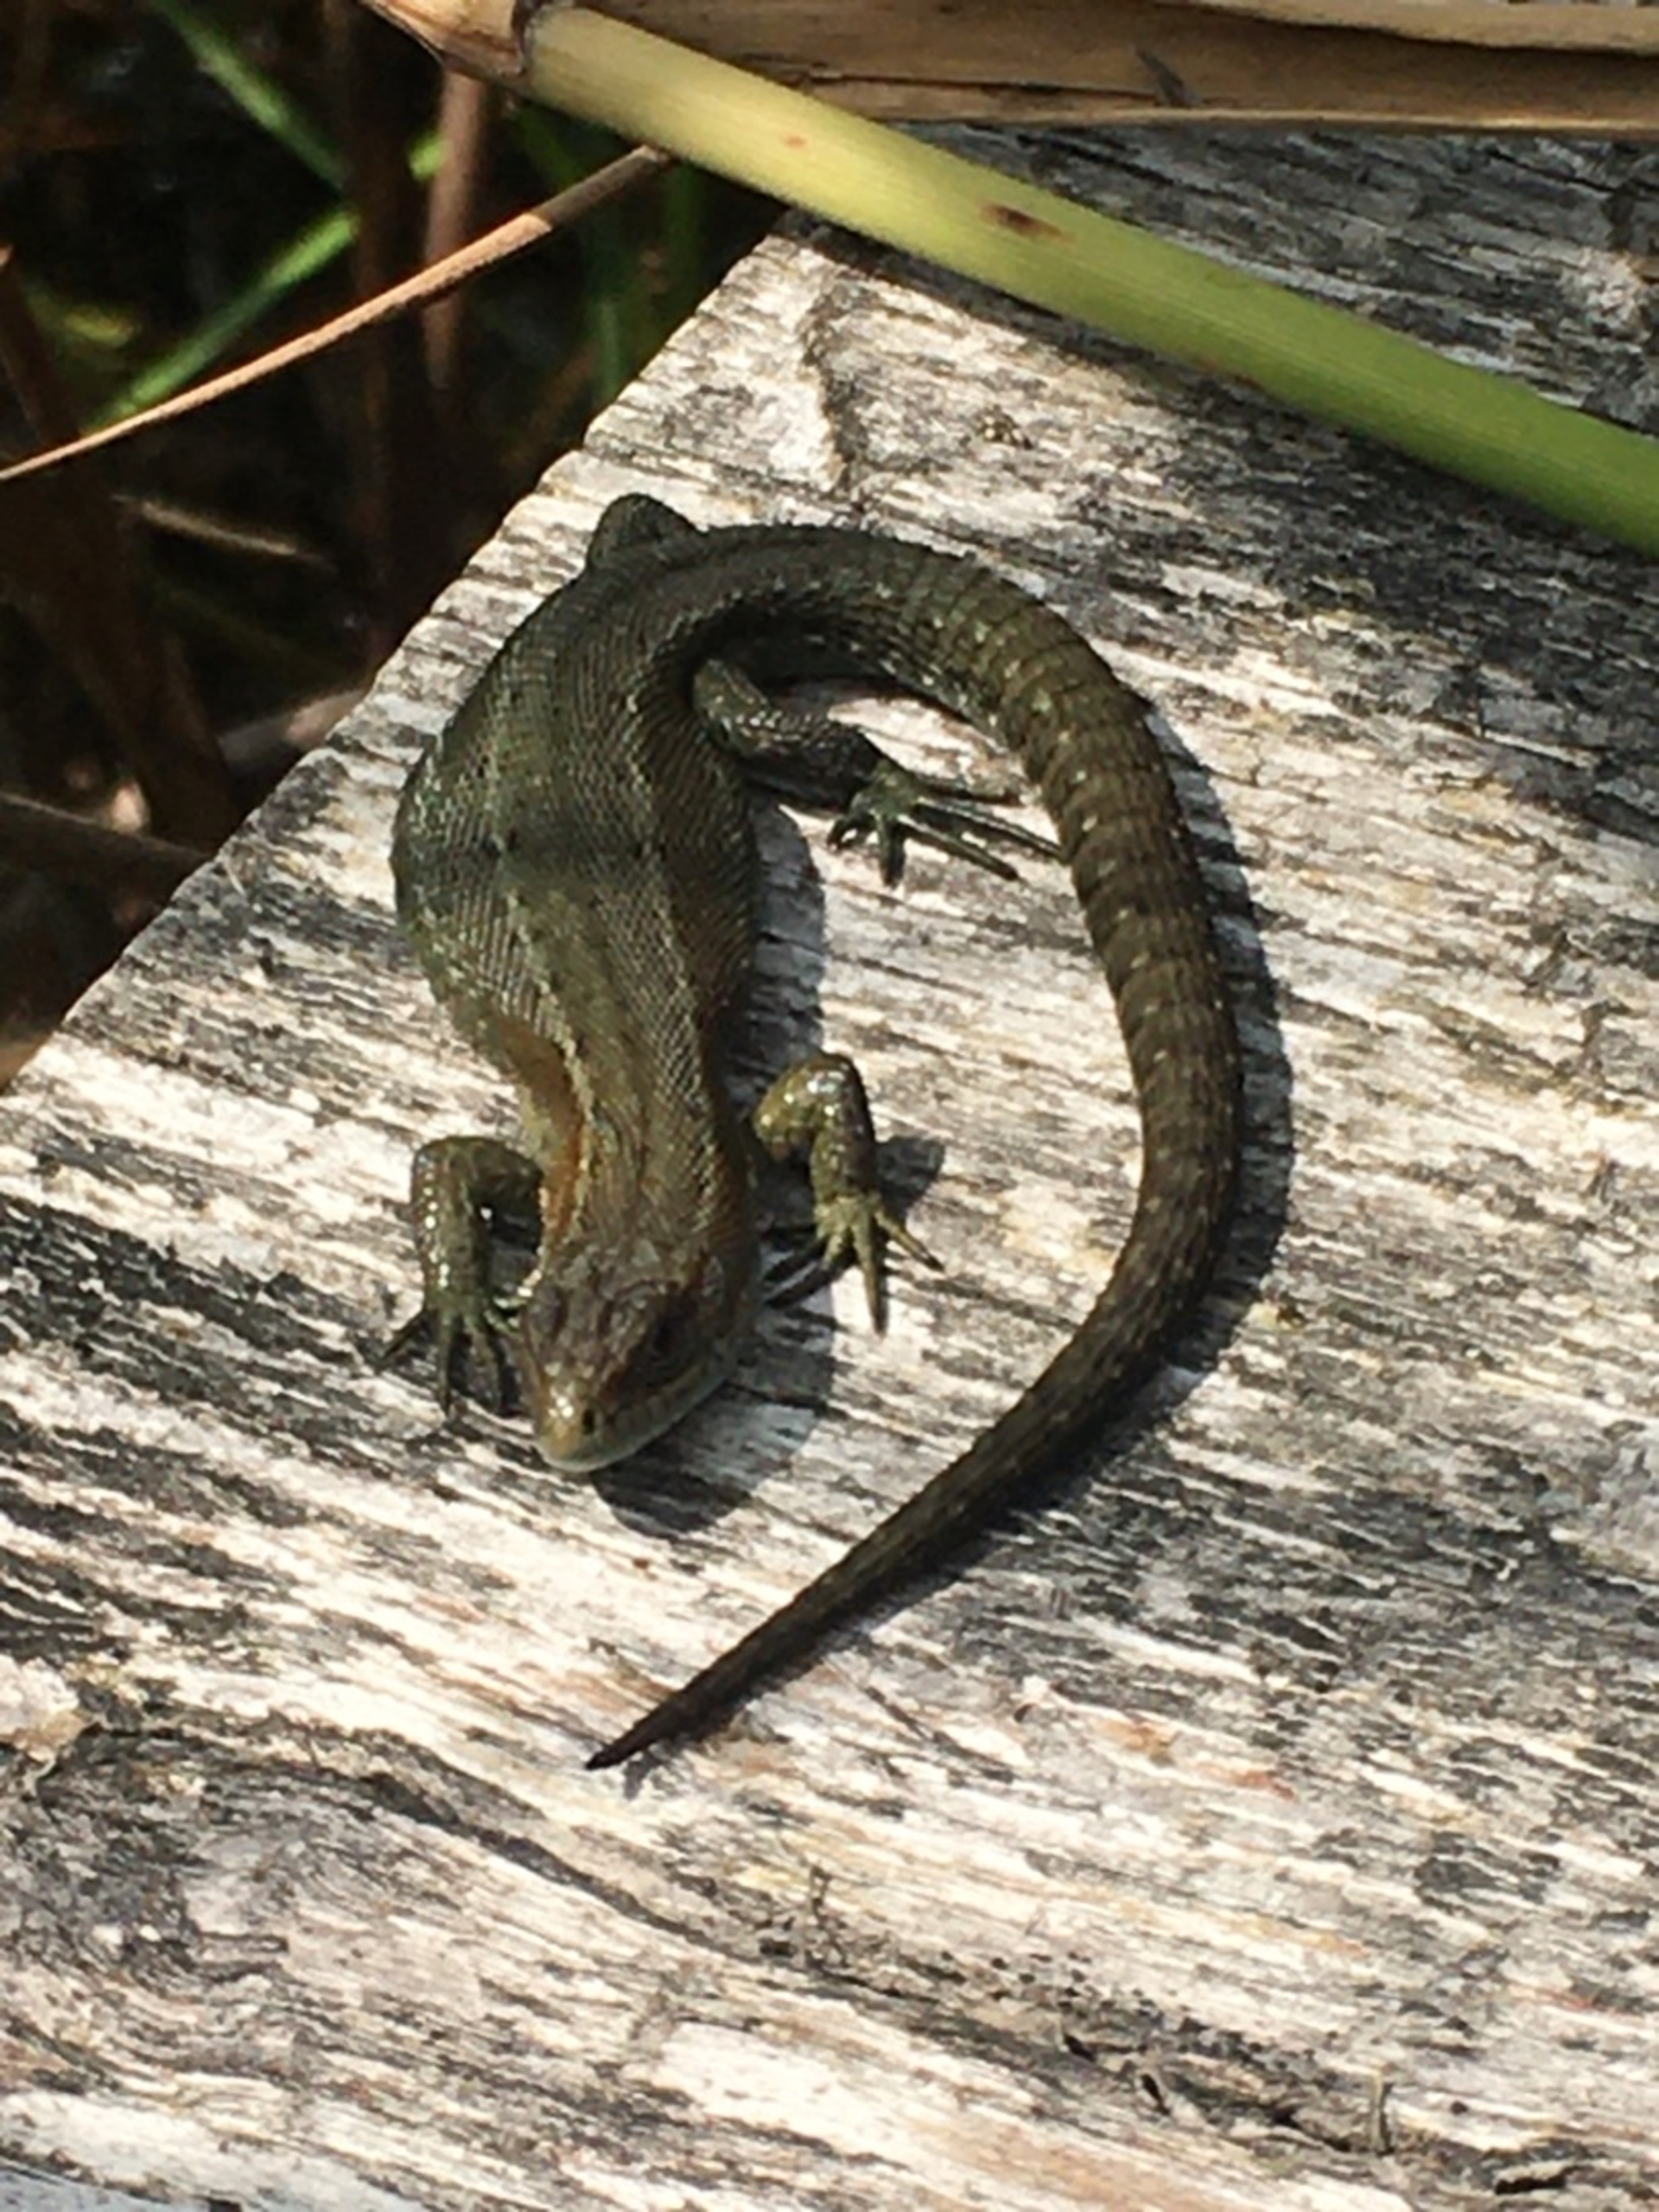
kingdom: Animalia
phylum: Chordata
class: Squamata
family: Lacertidae
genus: Zootoca
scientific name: Zootoca vivipara
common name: Skovfirben
